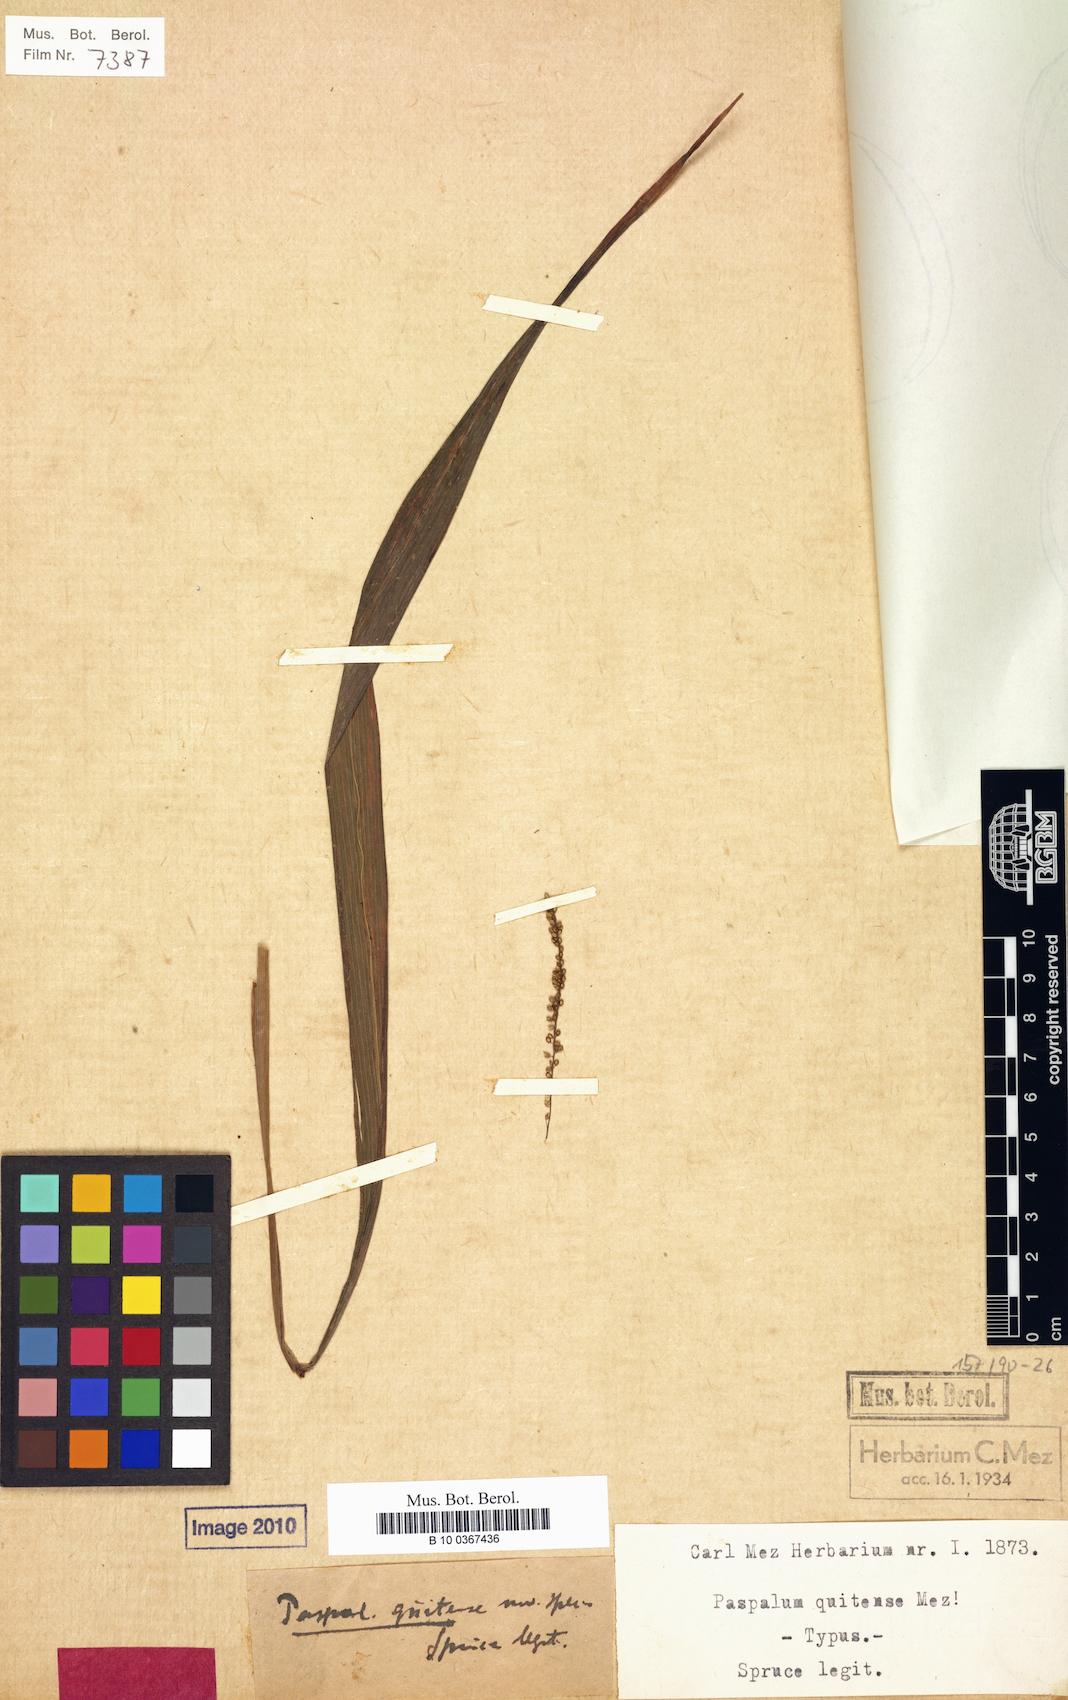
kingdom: Plantae
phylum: Tracheophyta
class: Liliopsida
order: Poales
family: Poaceae
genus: Paspalum
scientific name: Paspalum juergensii
